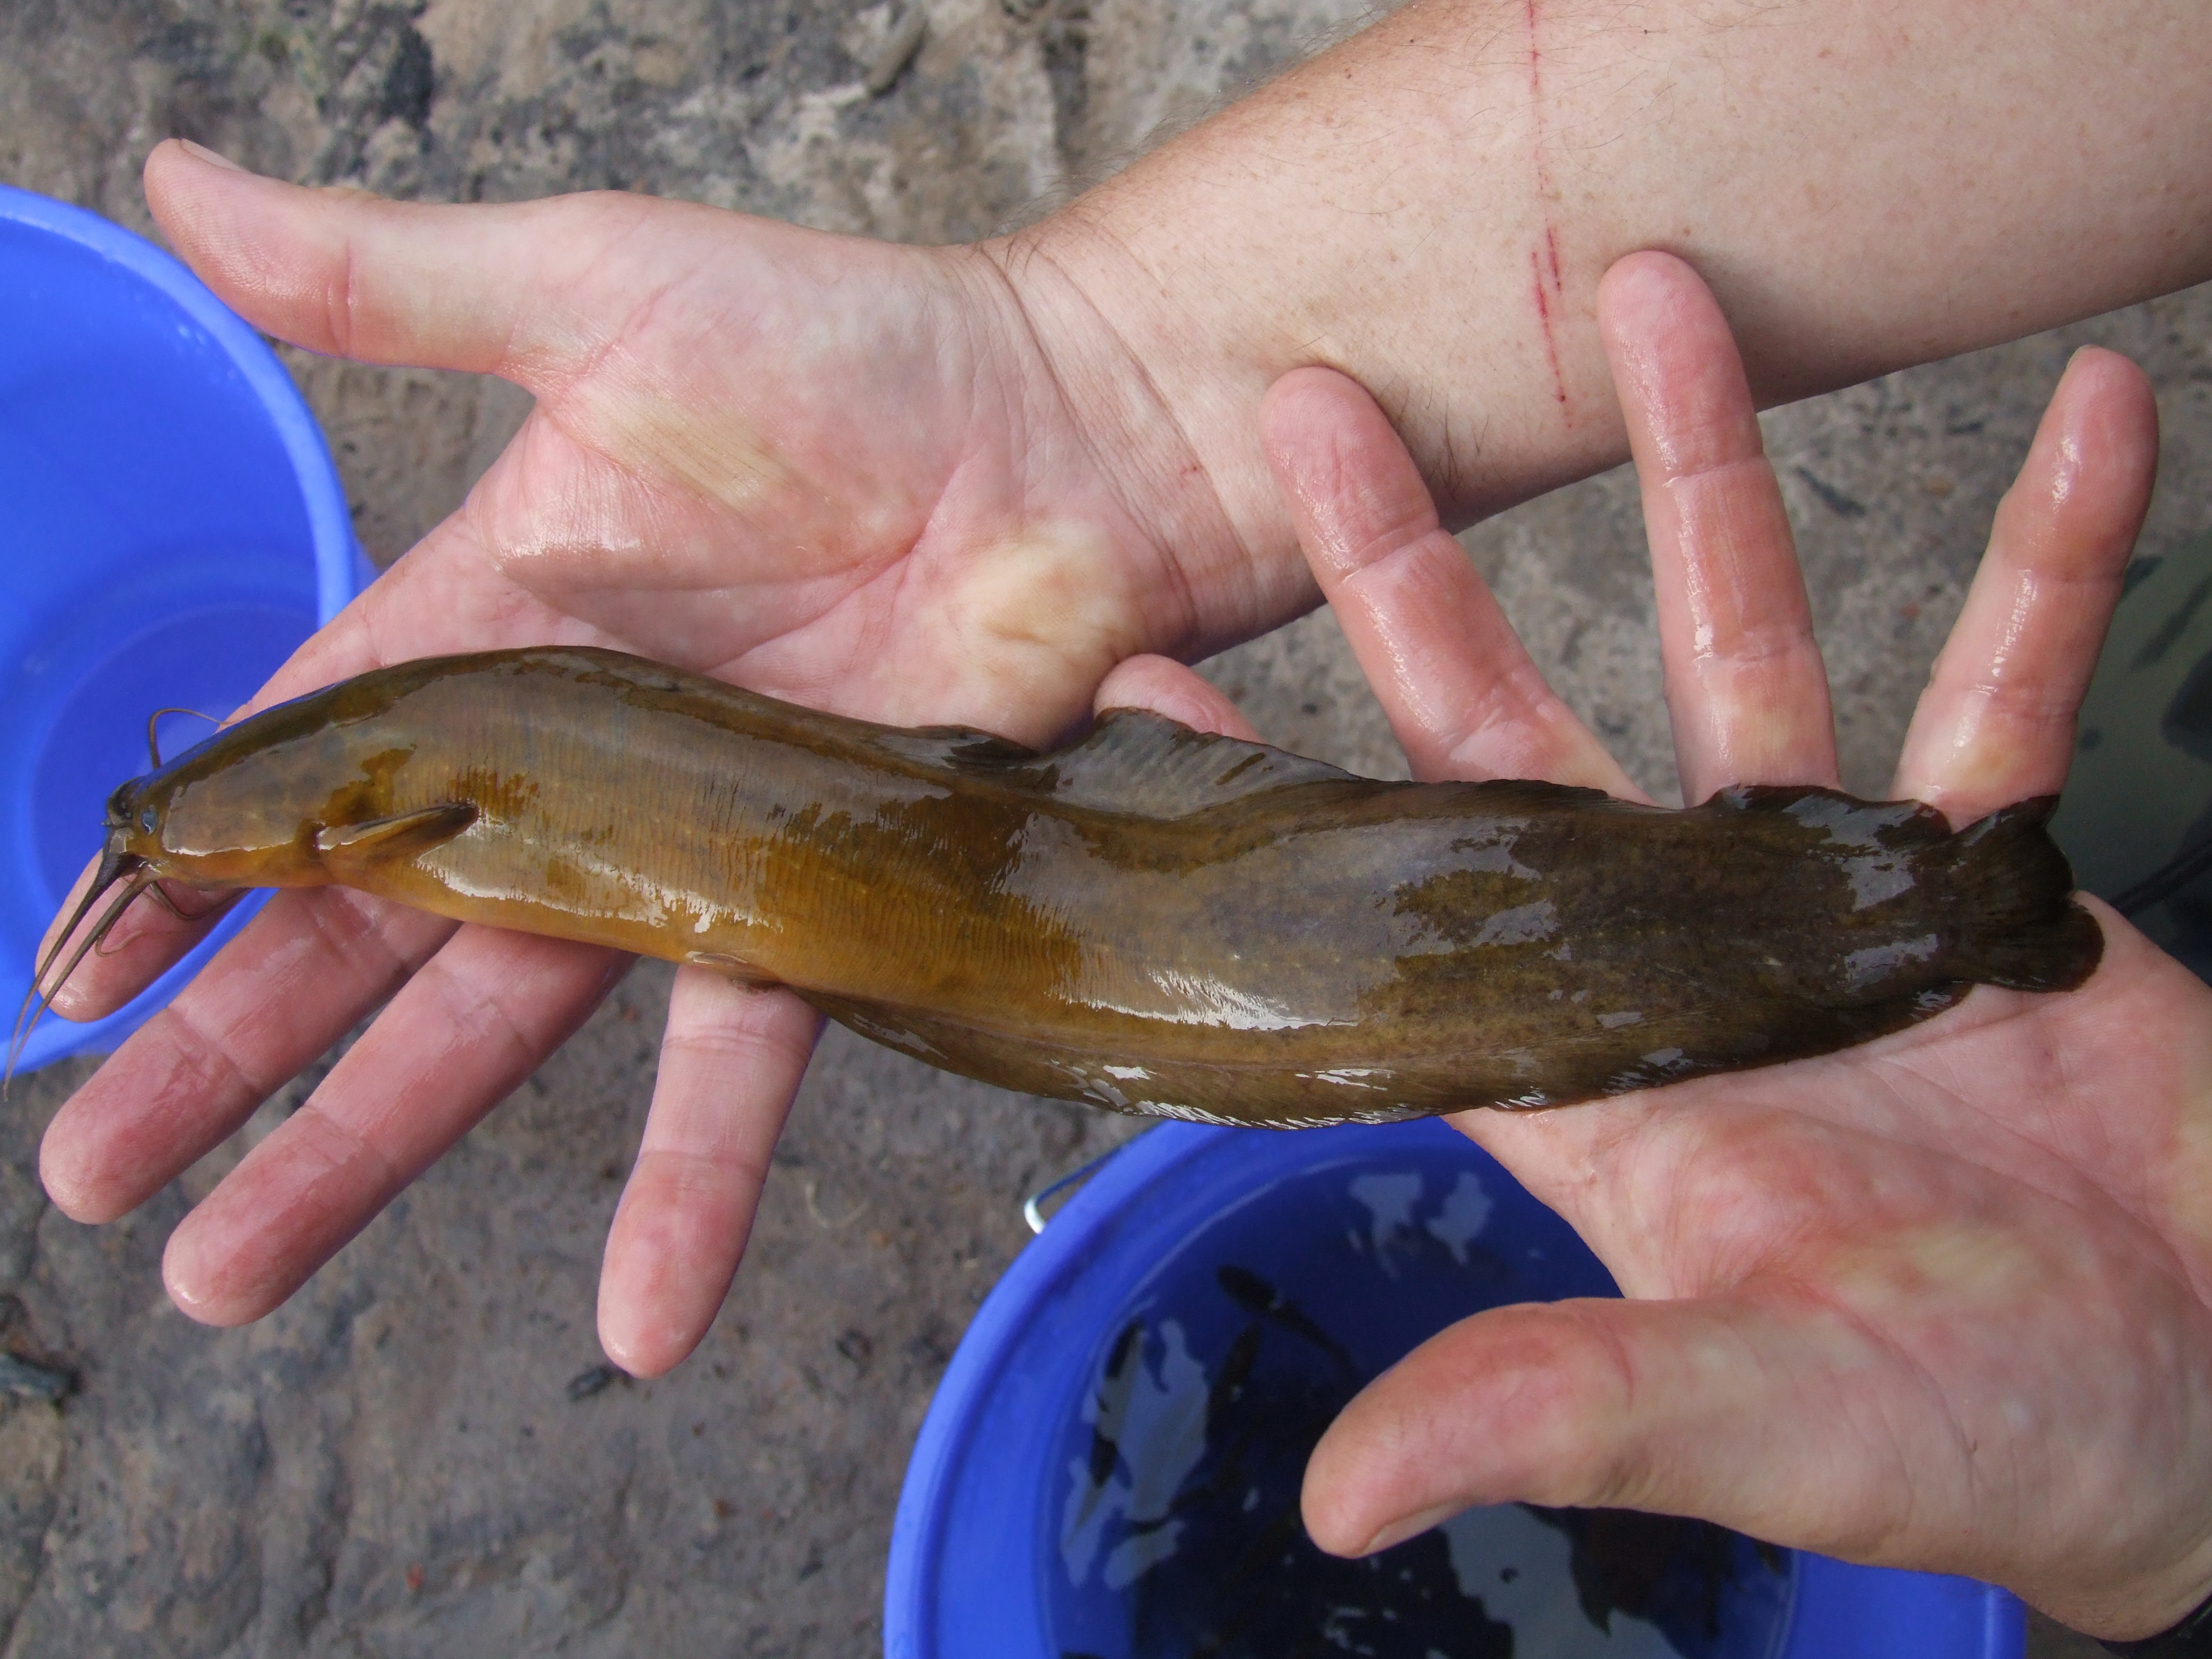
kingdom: Animalia
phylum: Chordata
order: Siluriformes
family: Clariidae
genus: Clarias
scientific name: Clarias theodorae
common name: Snake catfish
